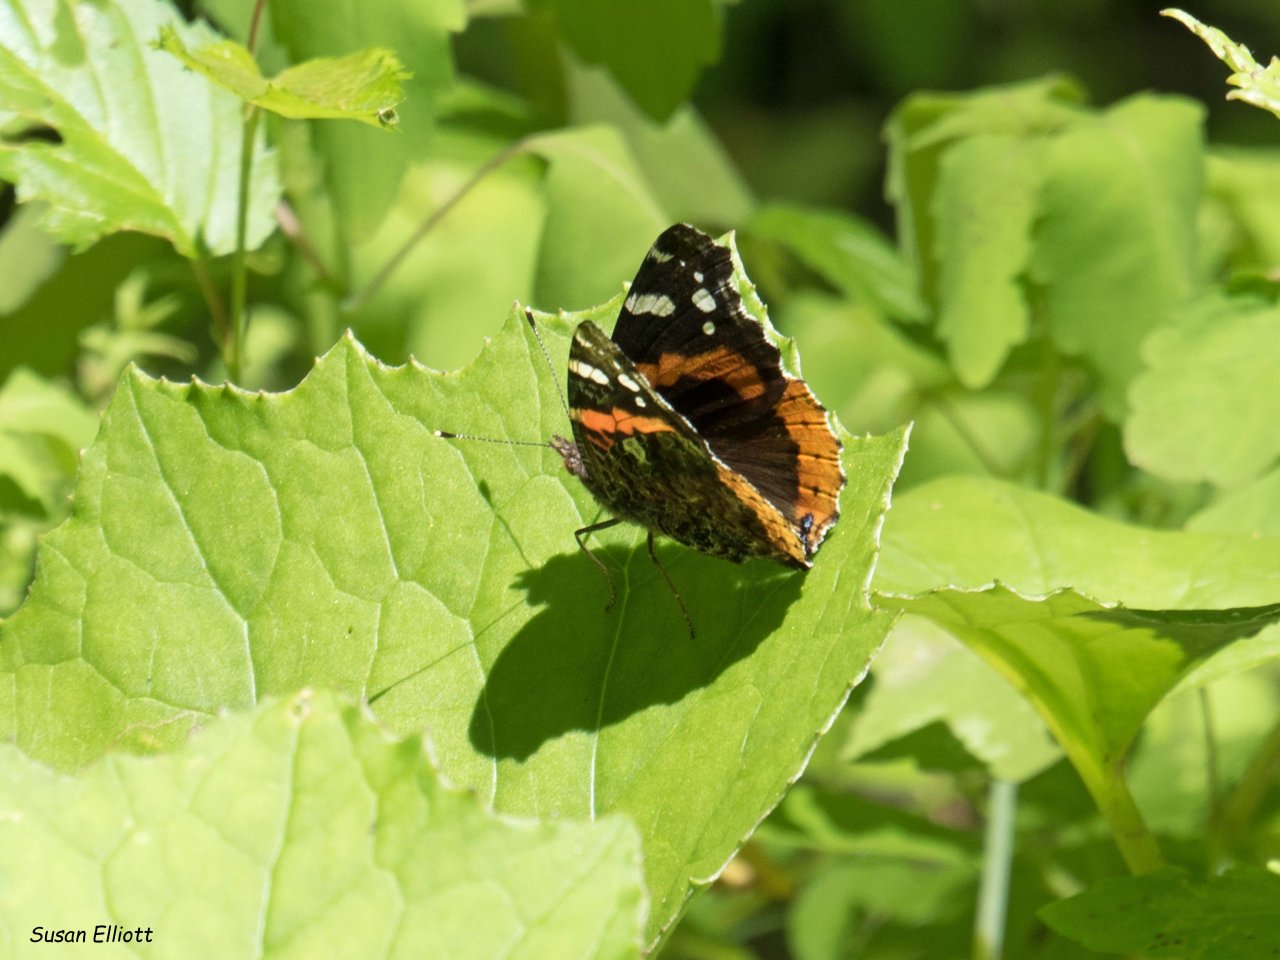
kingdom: Animalia
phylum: Arthropoda
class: Insecta
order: Lepidoptera
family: Nymphalidae
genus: Vanessa
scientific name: Vanessa atalanta
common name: Red Admiral
